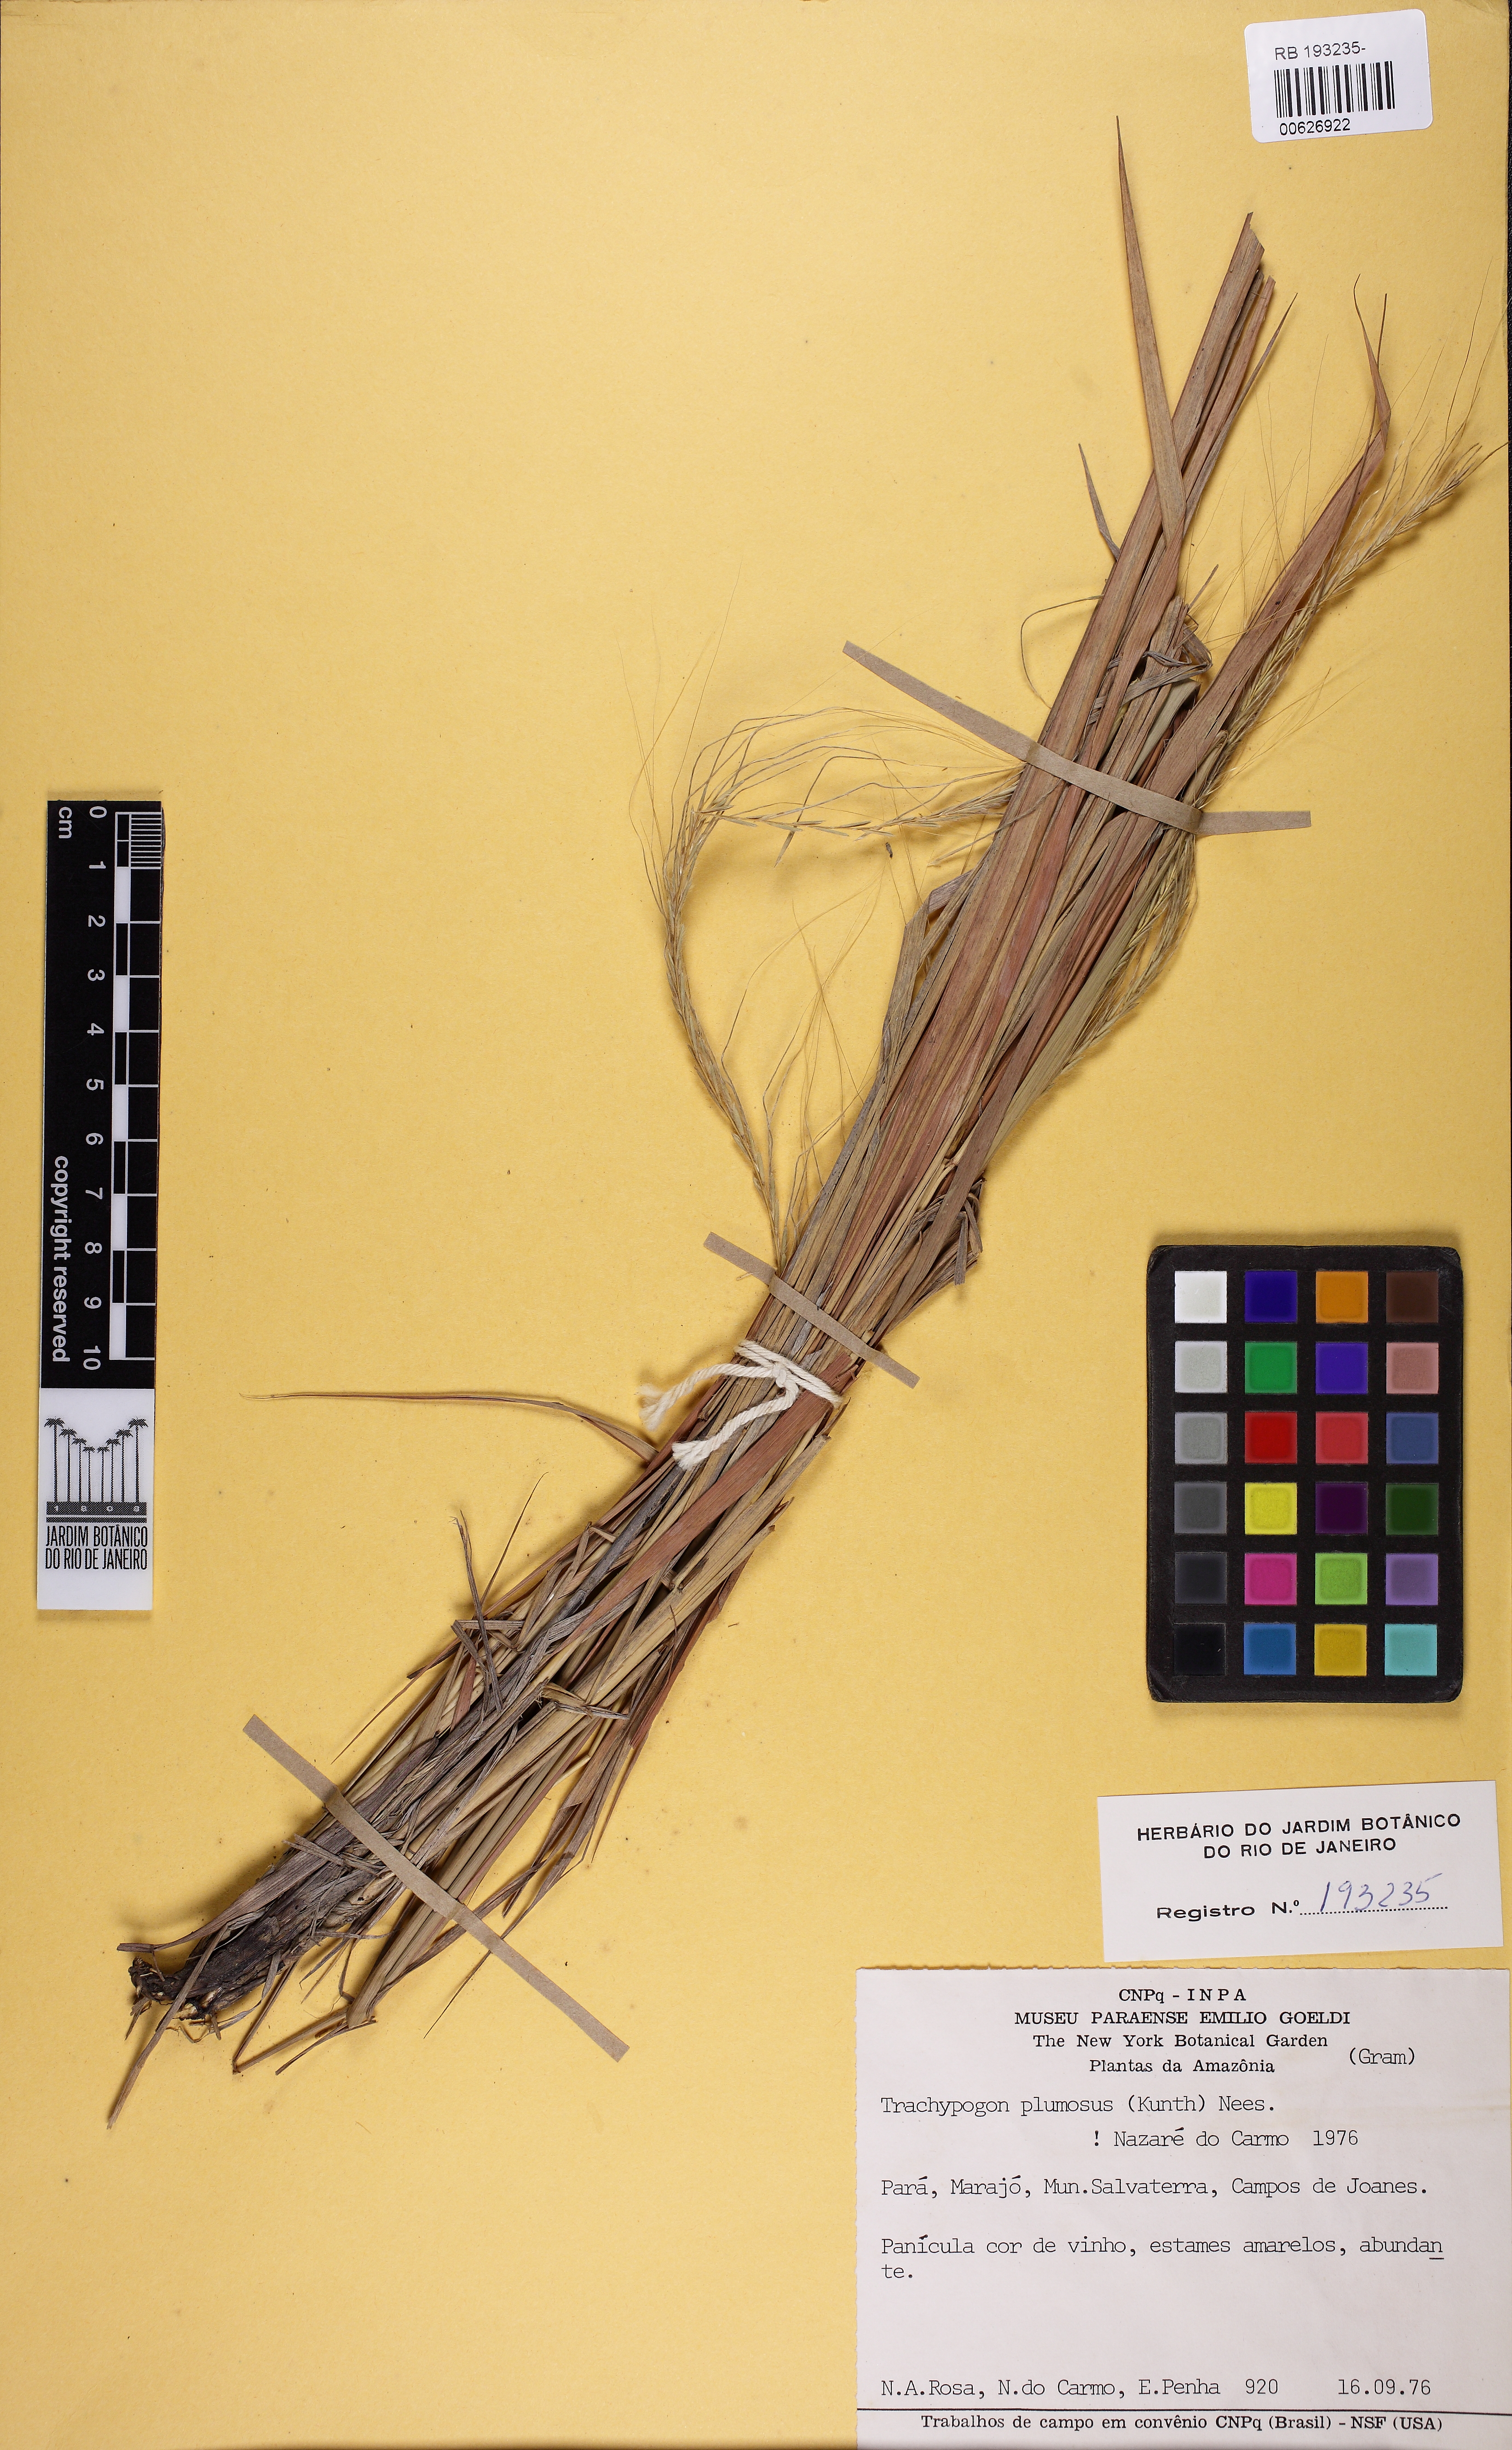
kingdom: Plantae
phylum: Tracheophyta
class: Liliopsida
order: Poales
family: Poaceae
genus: Trachypogon
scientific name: Trachypogon spicatus
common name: Crinkle-awn
